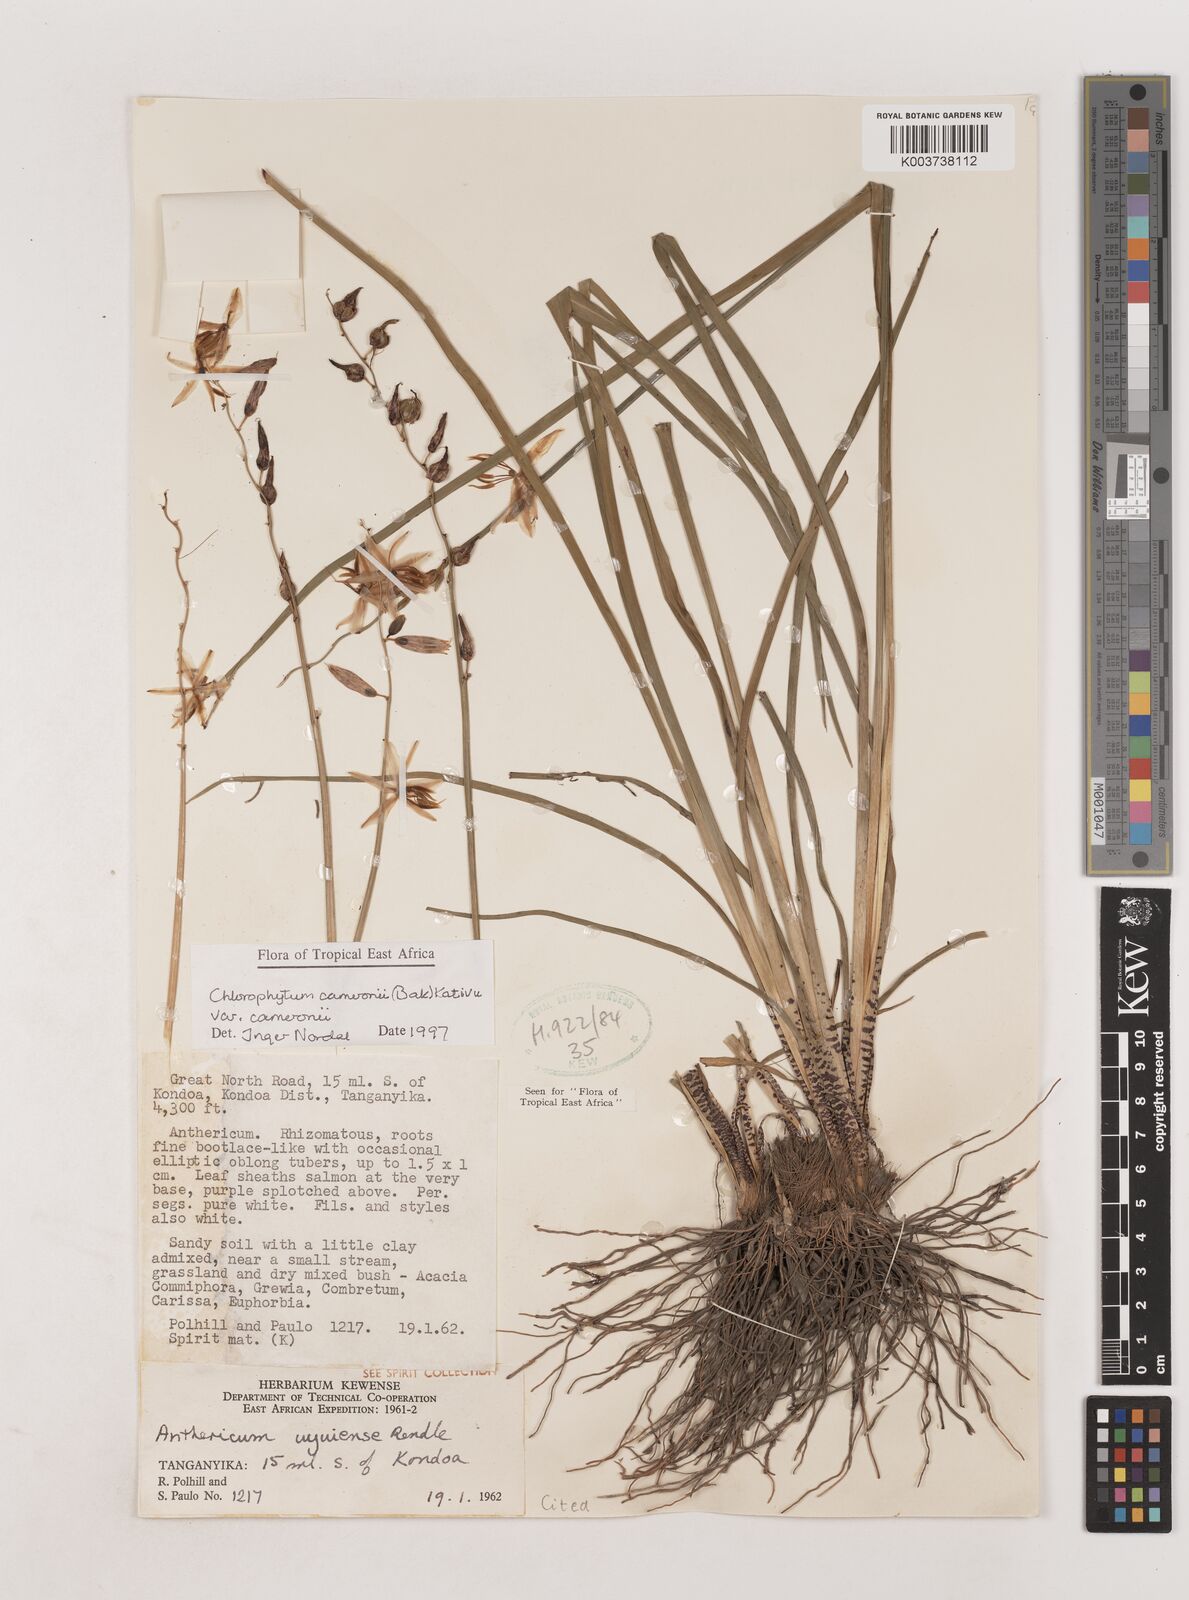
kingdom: Plantae
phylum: Tracheophyta
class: Liliopsida
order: Asparagales
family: Asparagaceae
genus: Chlorophytum
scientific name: Chlorophytum cameronii
